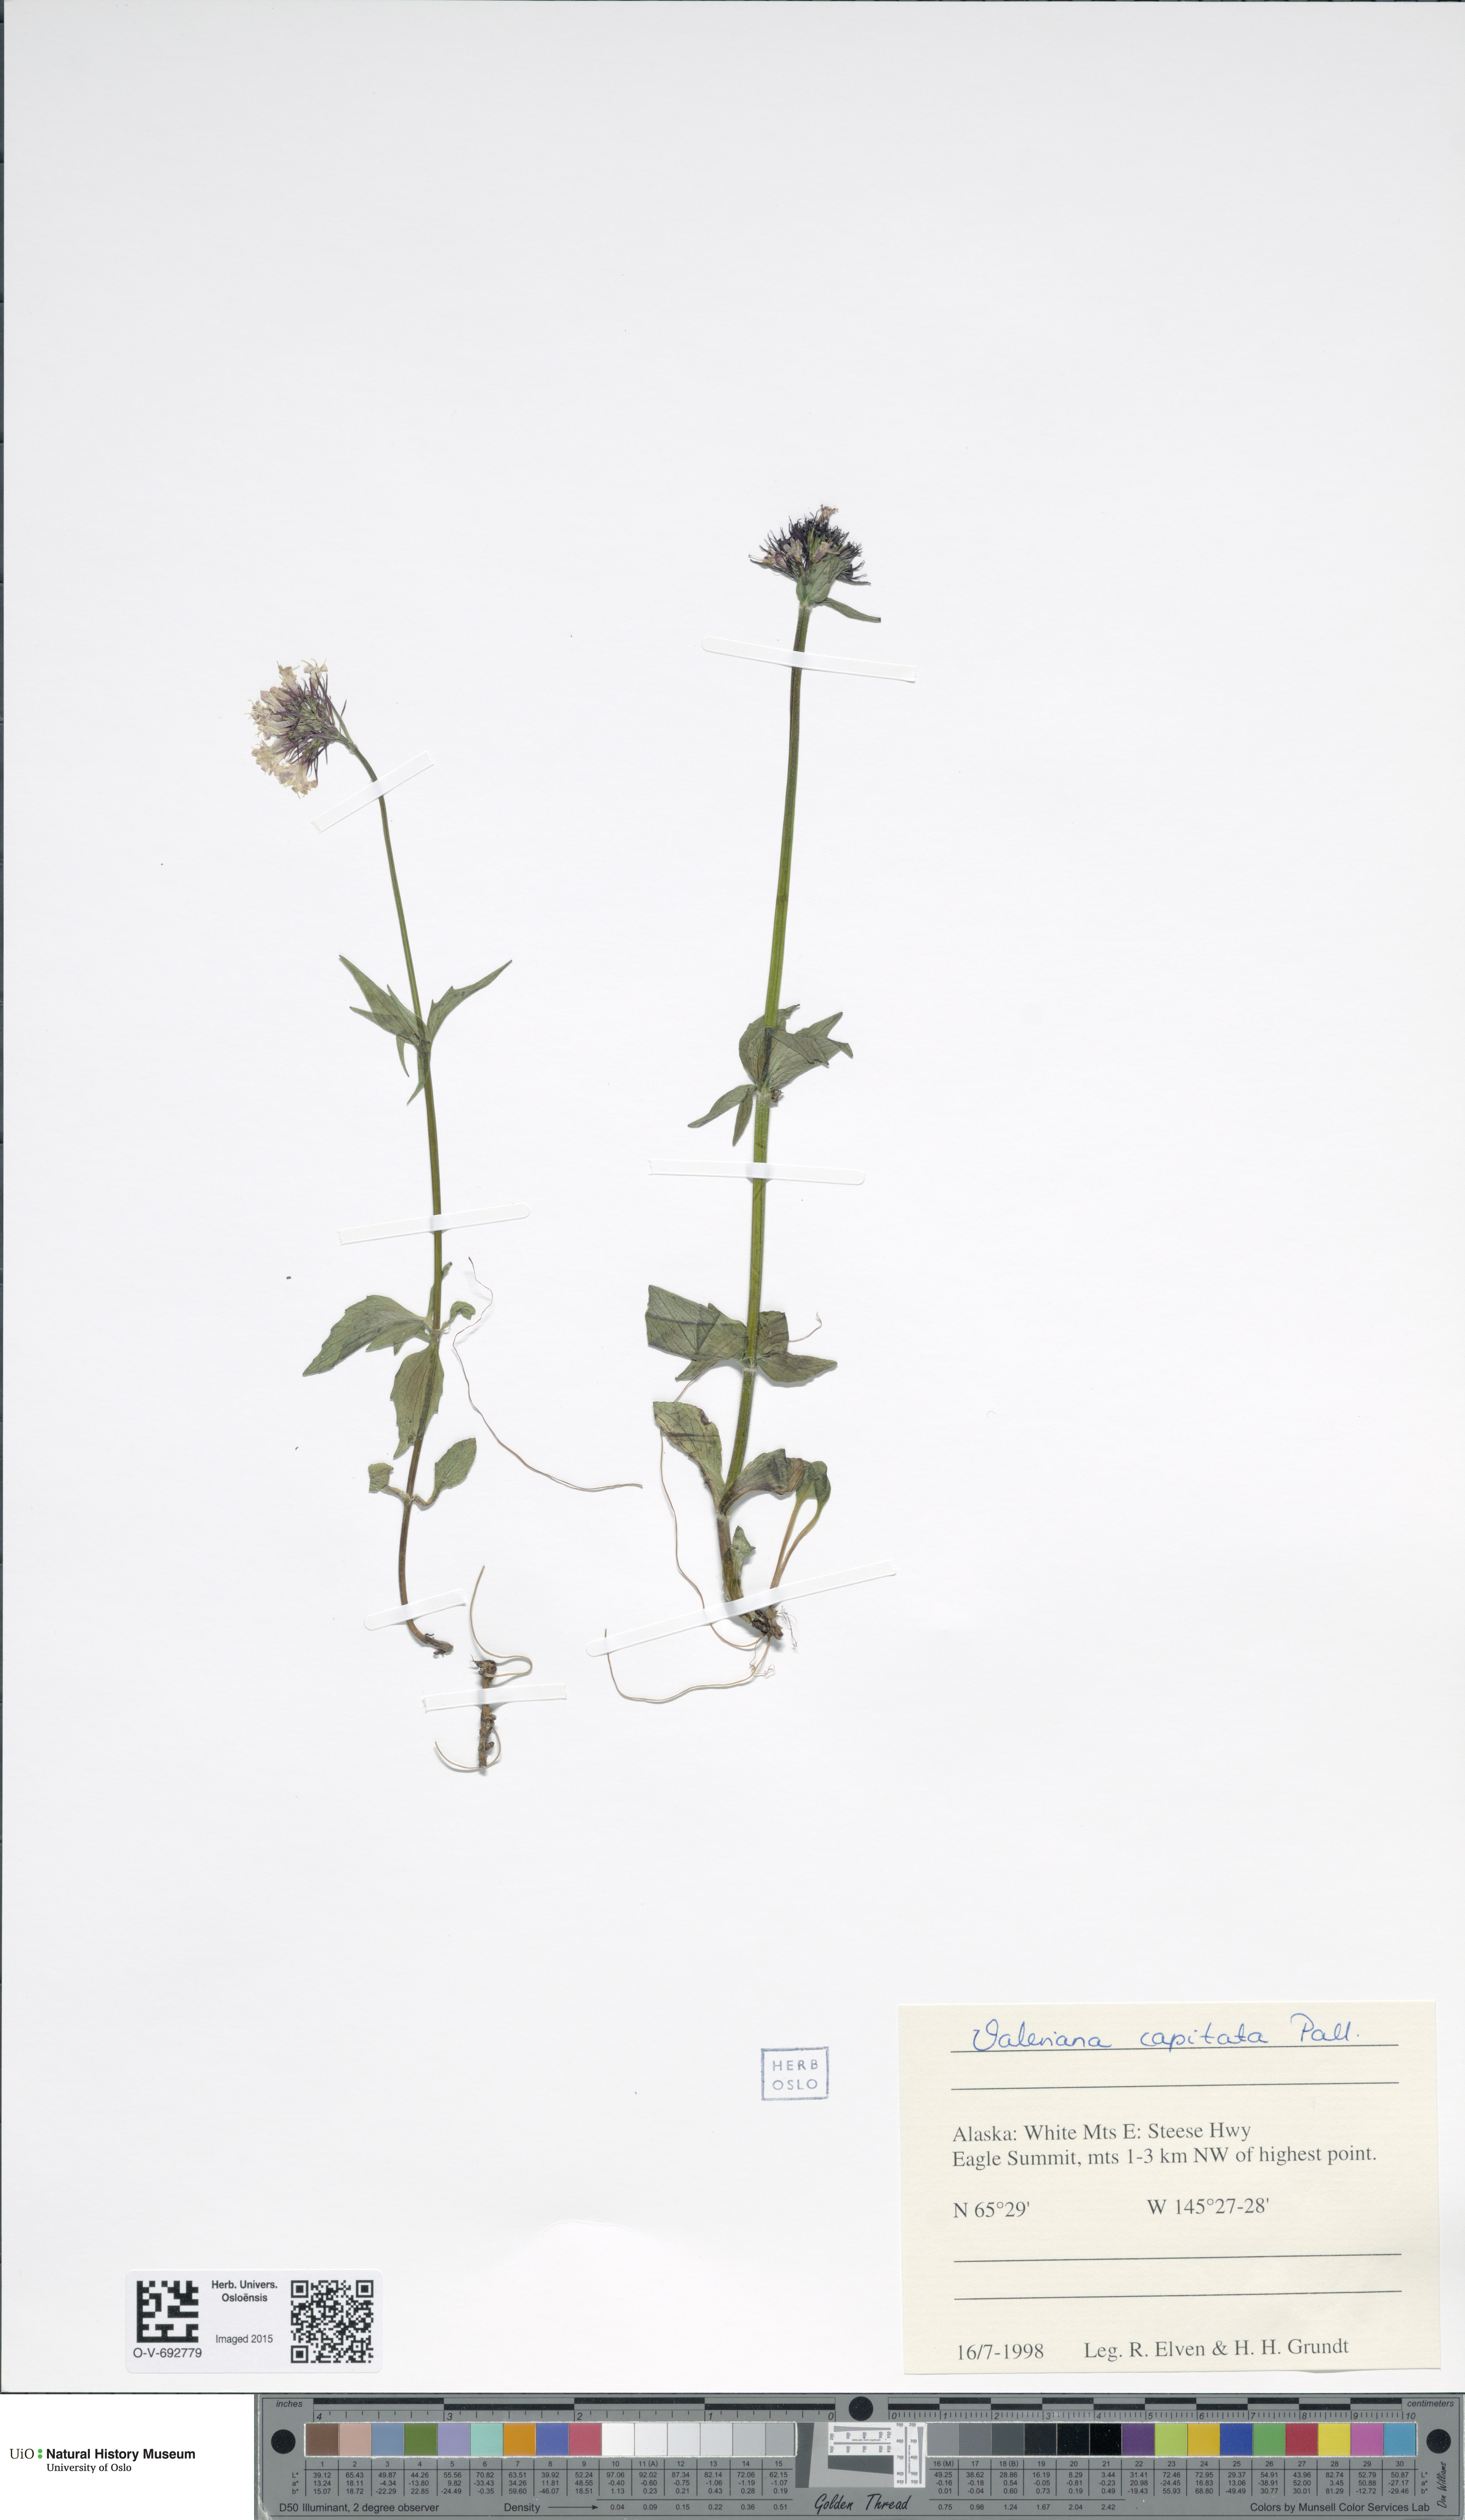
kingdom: Plantae
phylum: Tracheophyta
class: Magnoliopsida
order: Dipsacales
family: Caprifoliaceae
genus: Valeriana
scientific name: Valeriana capitata
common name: Capitate valerian
